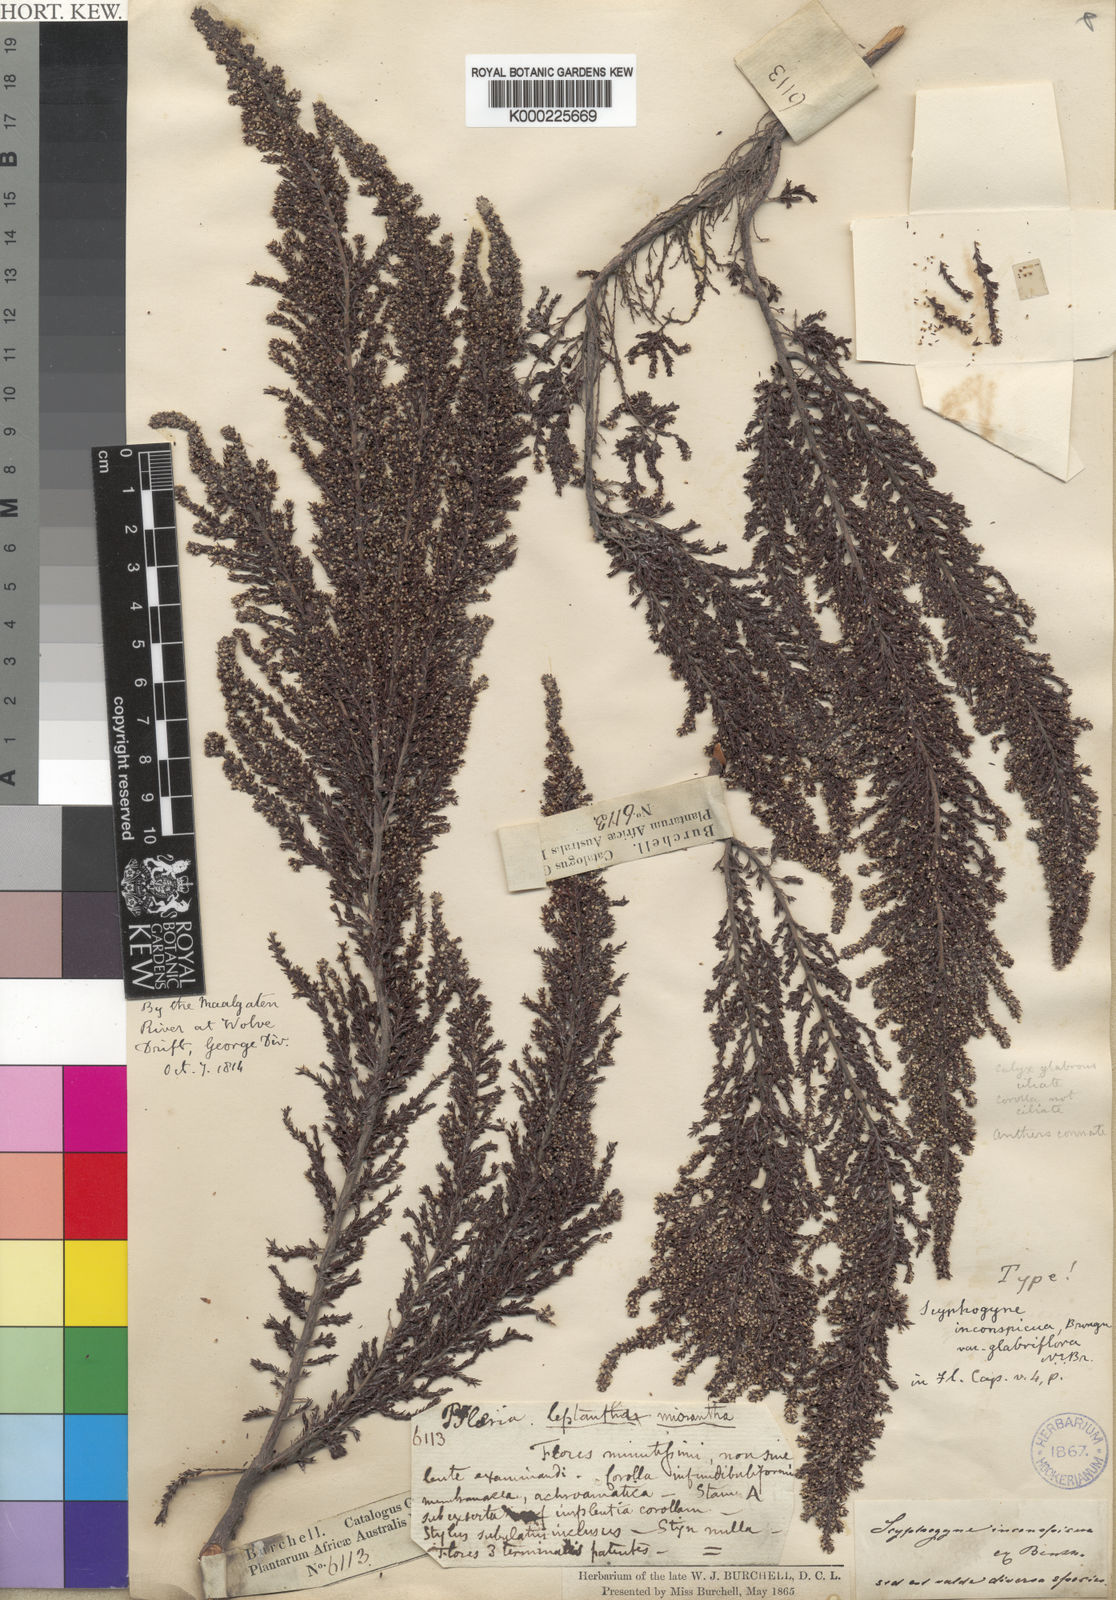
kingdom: Plantae
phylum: Tracheophyta
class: Magnoliopsida
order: Ericales
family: Ericaceae
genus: Scyphogyne
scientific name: Scyphogyne
